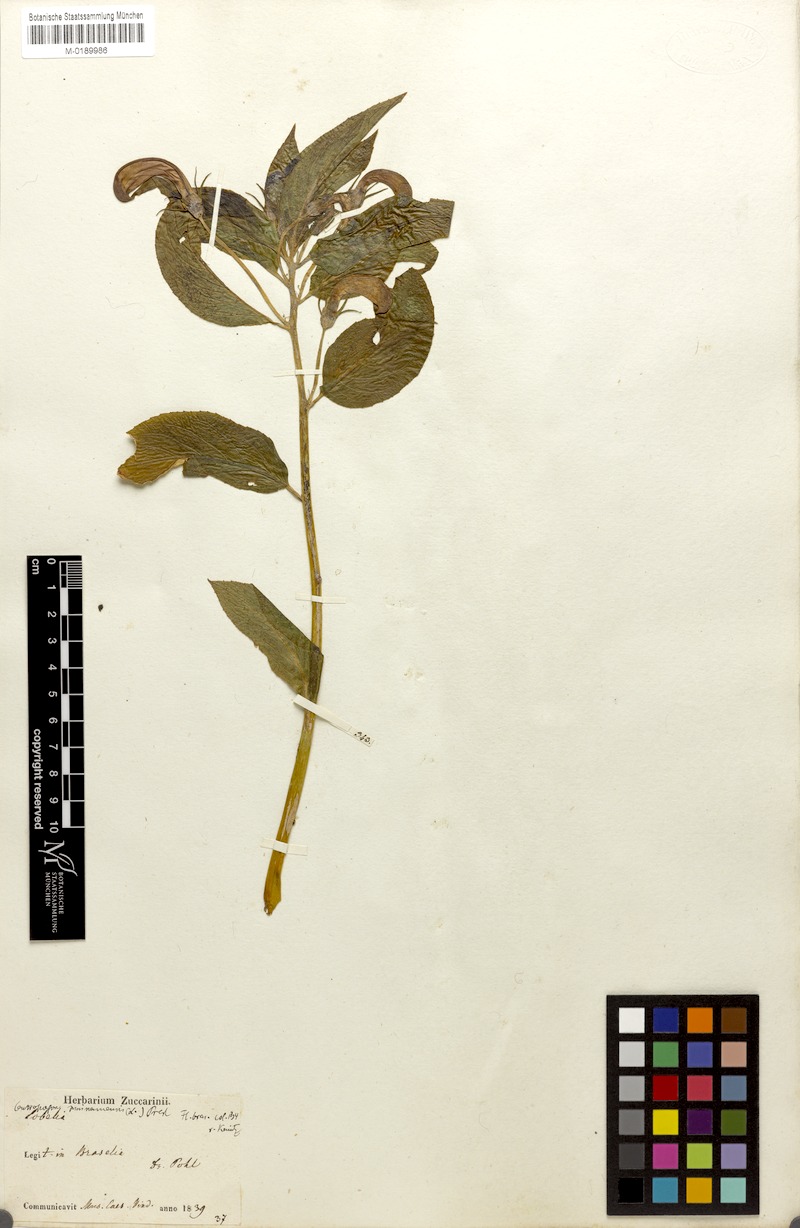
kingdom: Plantae
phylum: Tracheophyta
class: Magnoliopsida
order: Asterales
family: Campanulaceae
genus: Centropogon
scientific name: Centropogon cornutus
